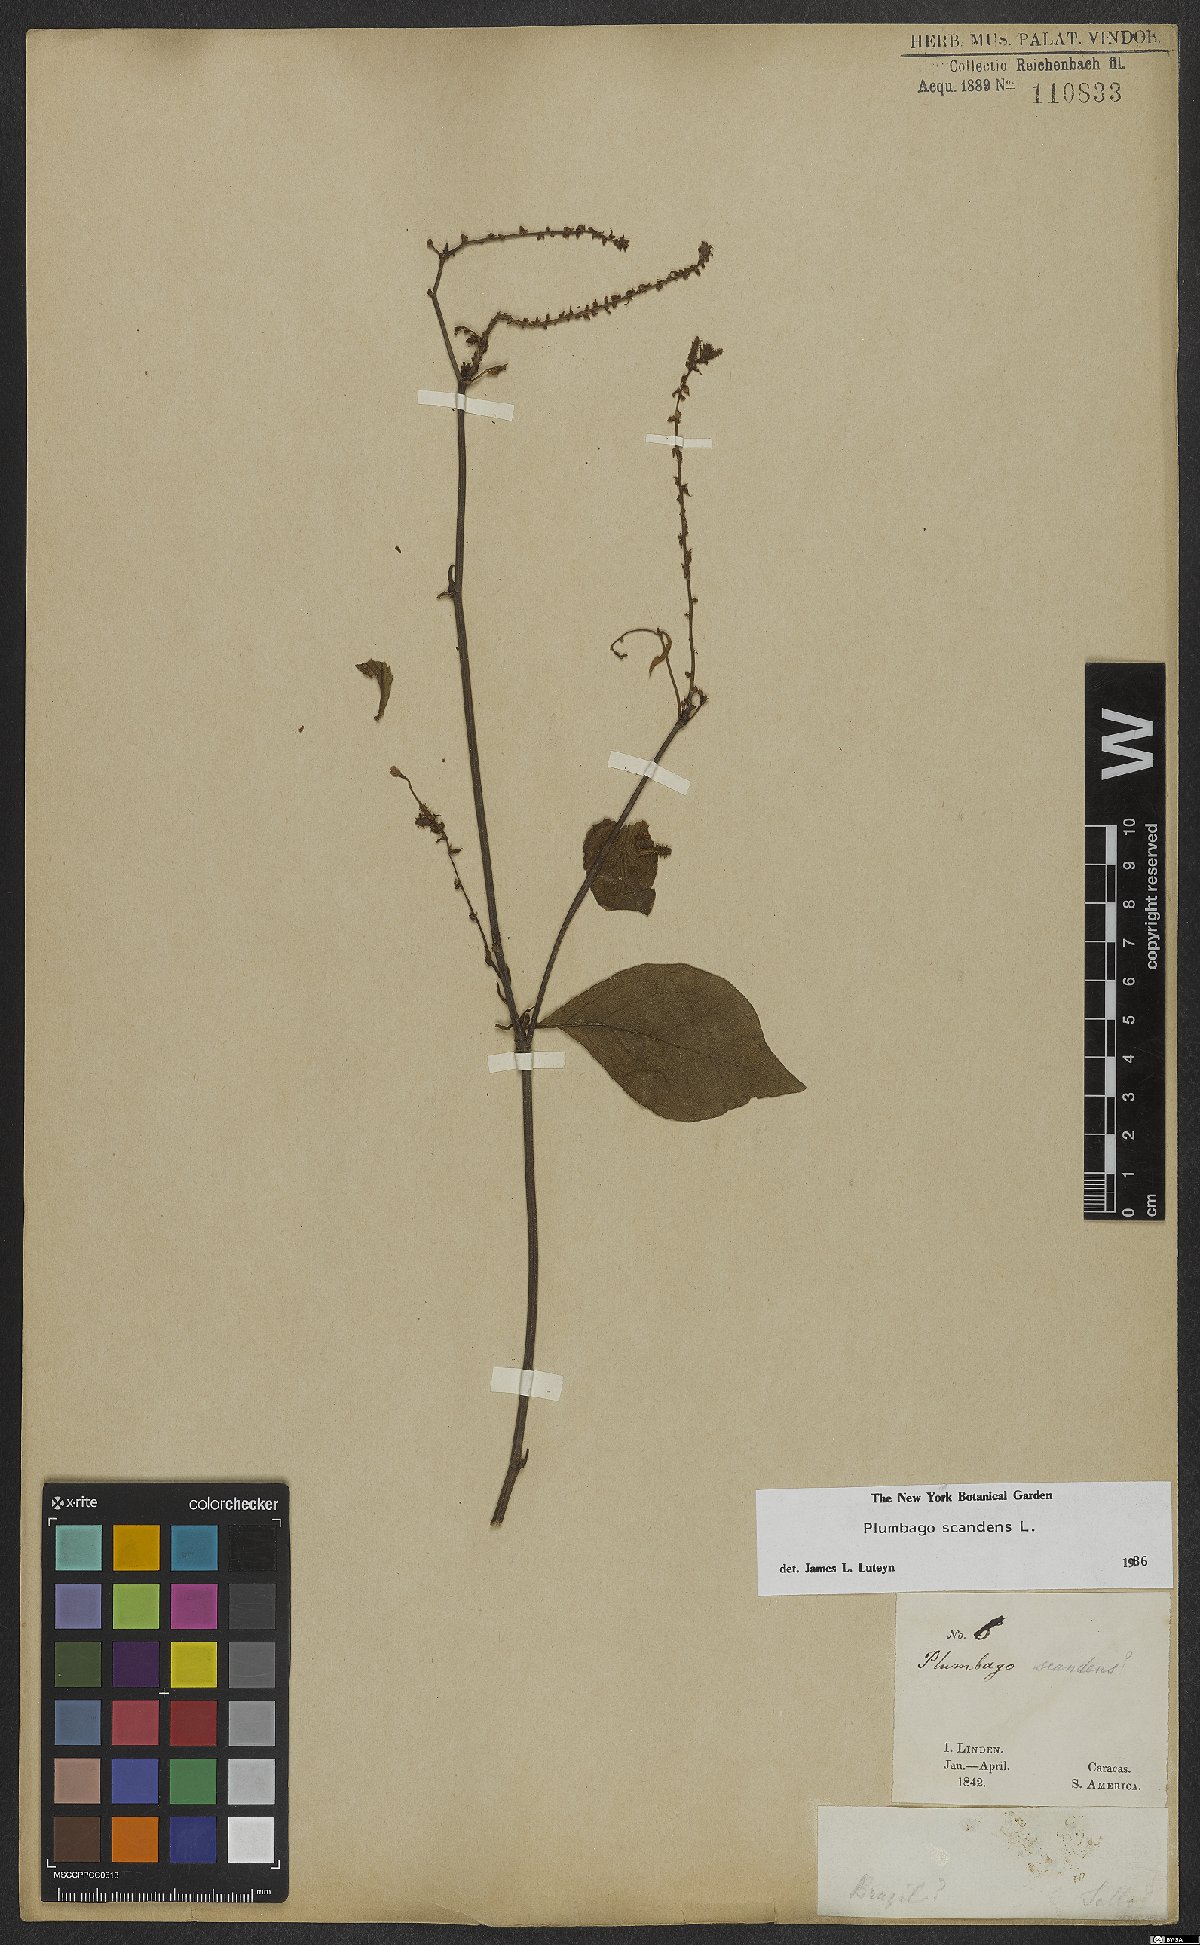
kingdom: Plantae
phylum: Tracheophyta
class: Magnoliopsida
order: Caryophyllales
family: Plumbaginaceae
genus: Plumbago
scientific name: Plumbago zeylanica
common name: Doctorbush
